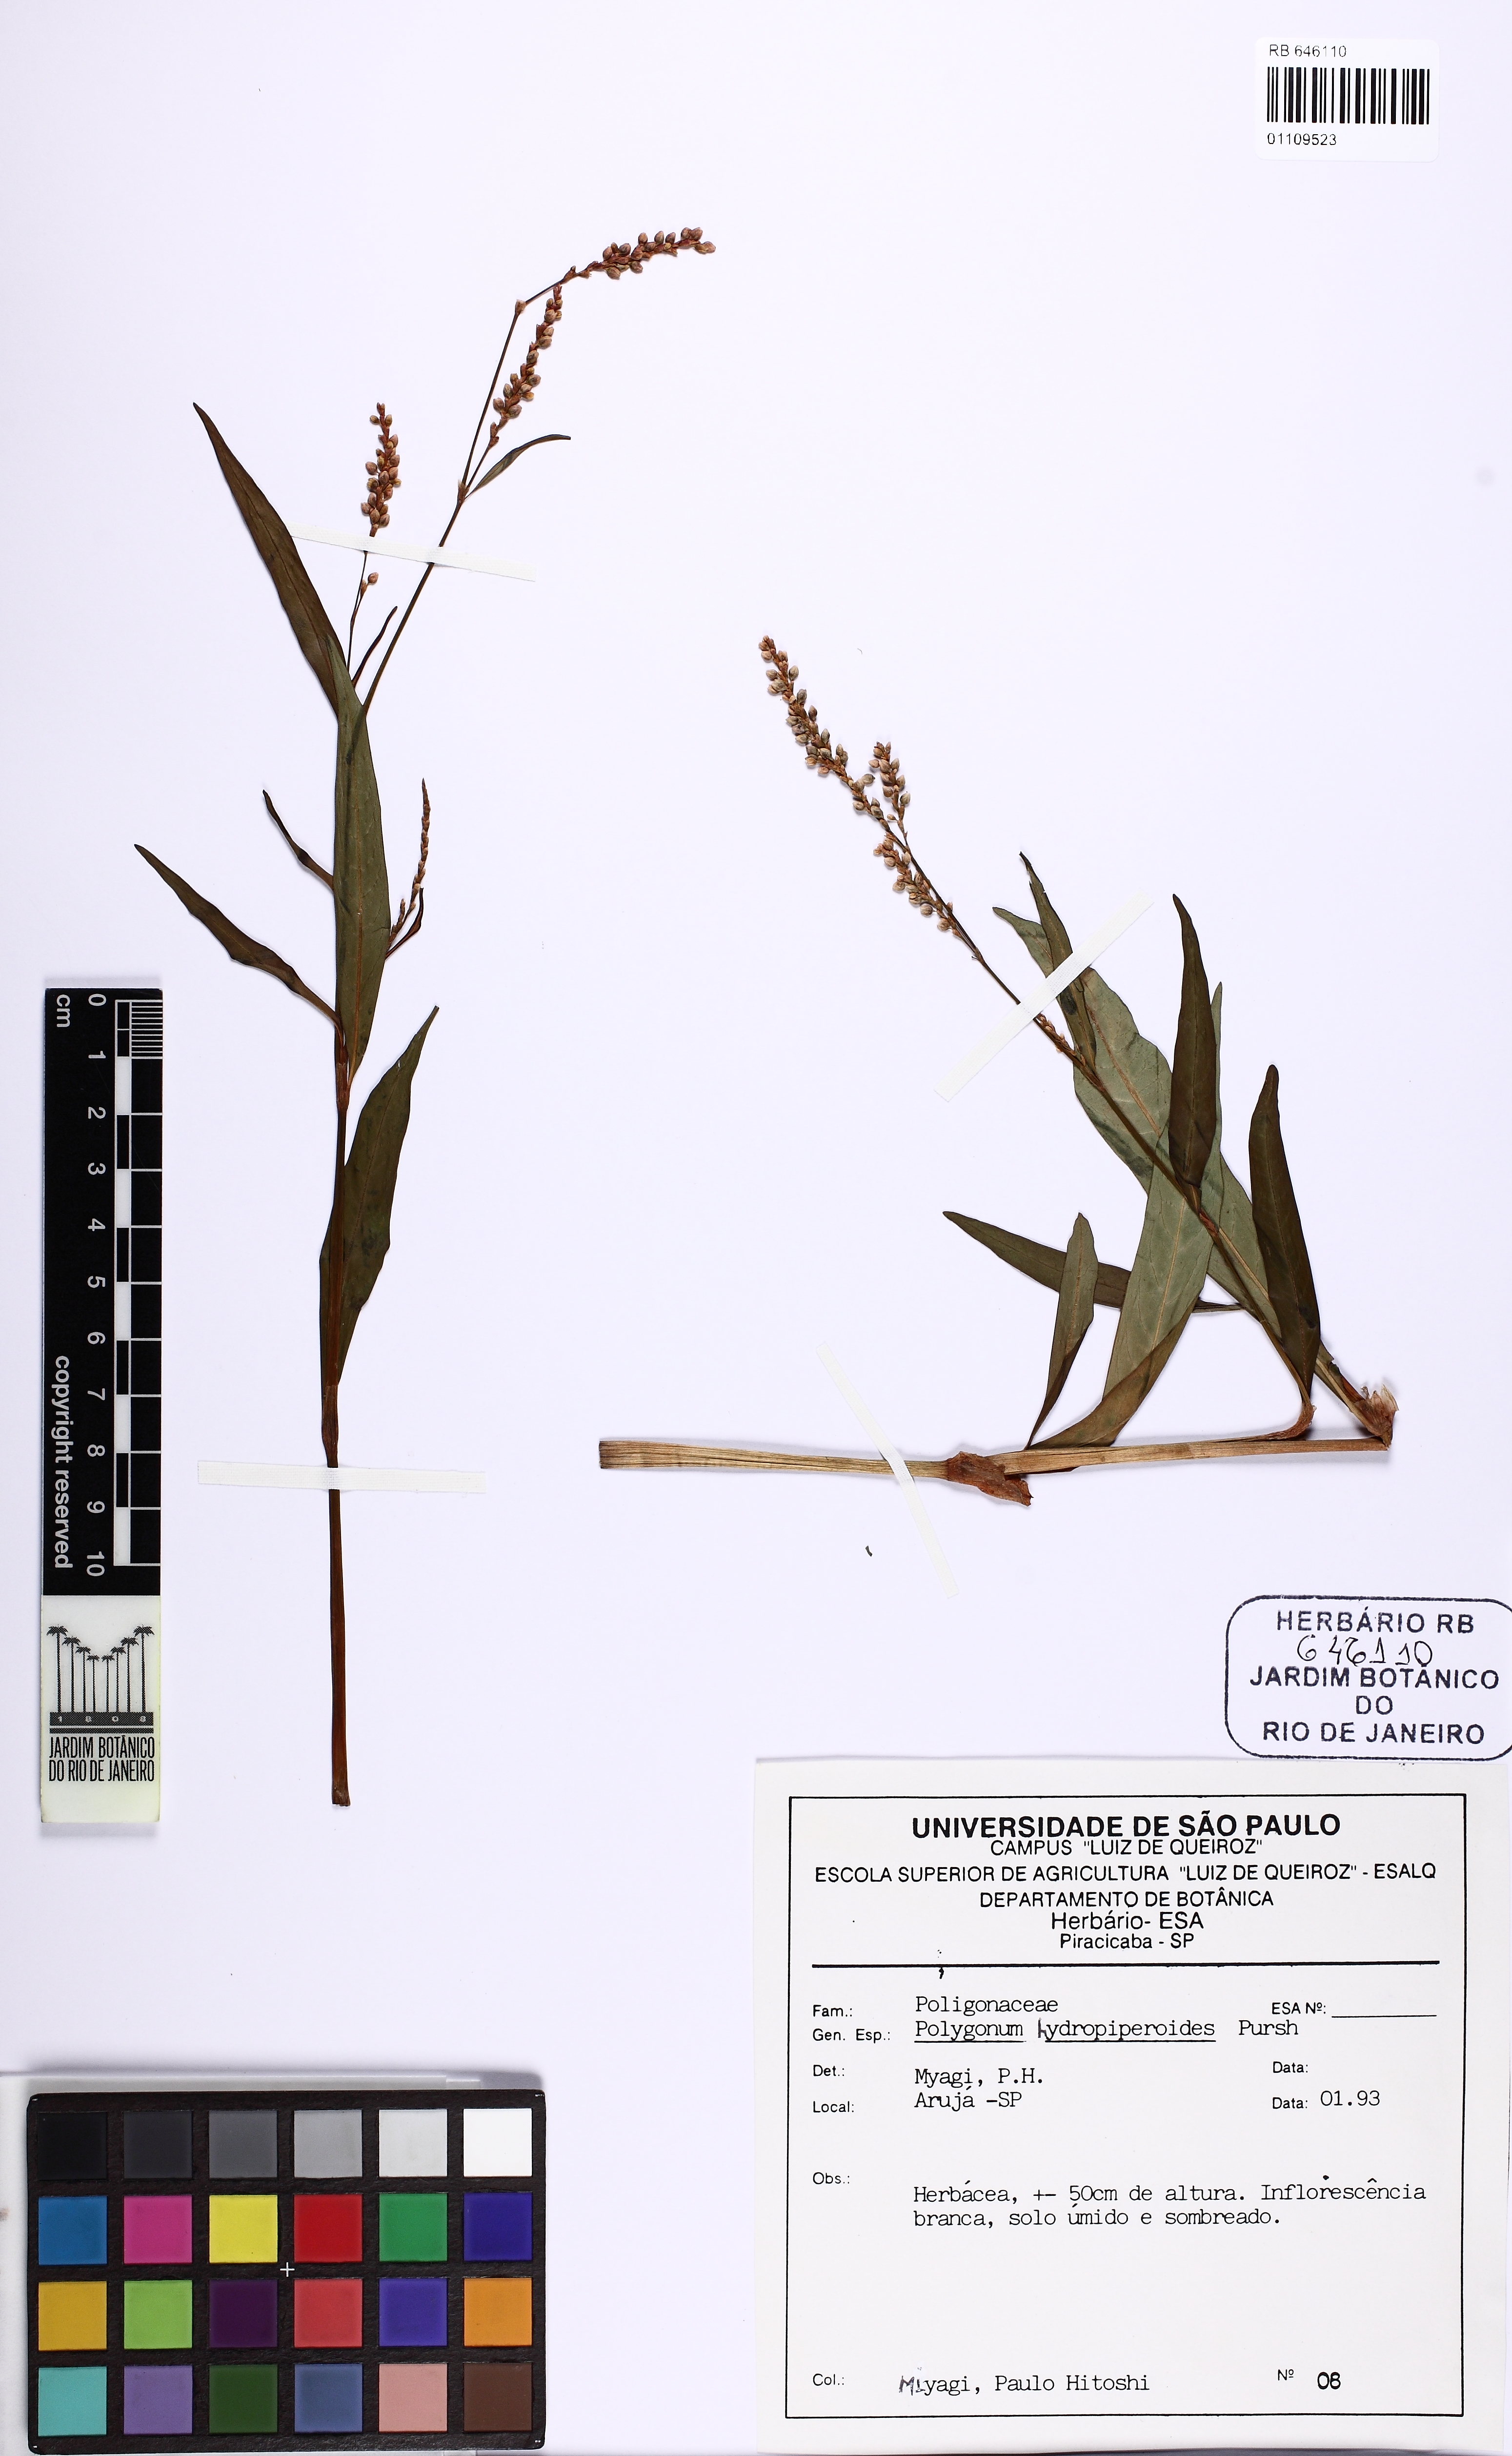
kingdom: Plantae
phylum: Tracheophyta
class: Magnoliopsida
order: Caryophyllales
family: Polygonaceae
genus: Persicaria
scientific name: Persicaria hydropiperoides
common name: Swamp smartweed
